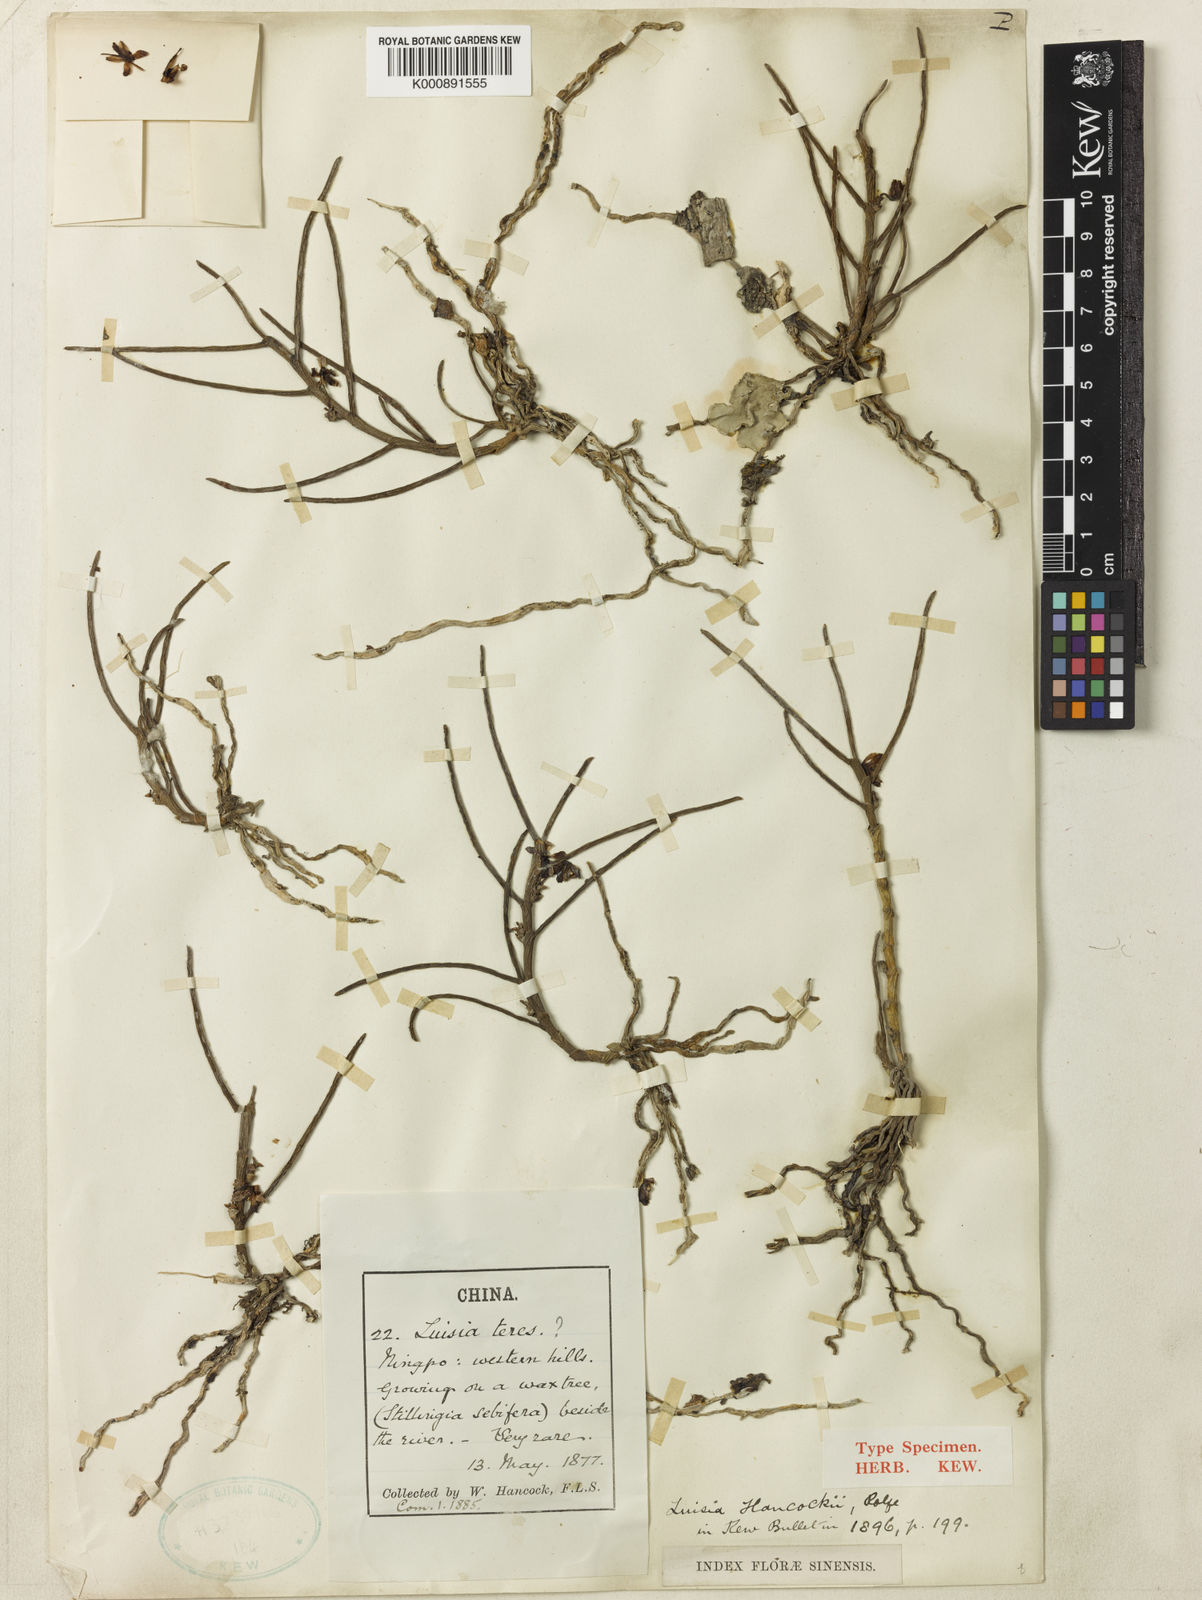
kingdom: Plantae
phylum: Tracheophyta
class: Liliopsida
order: Asparagales
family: Orchidaceae
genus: Luisia
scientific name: Luisia hancockii
